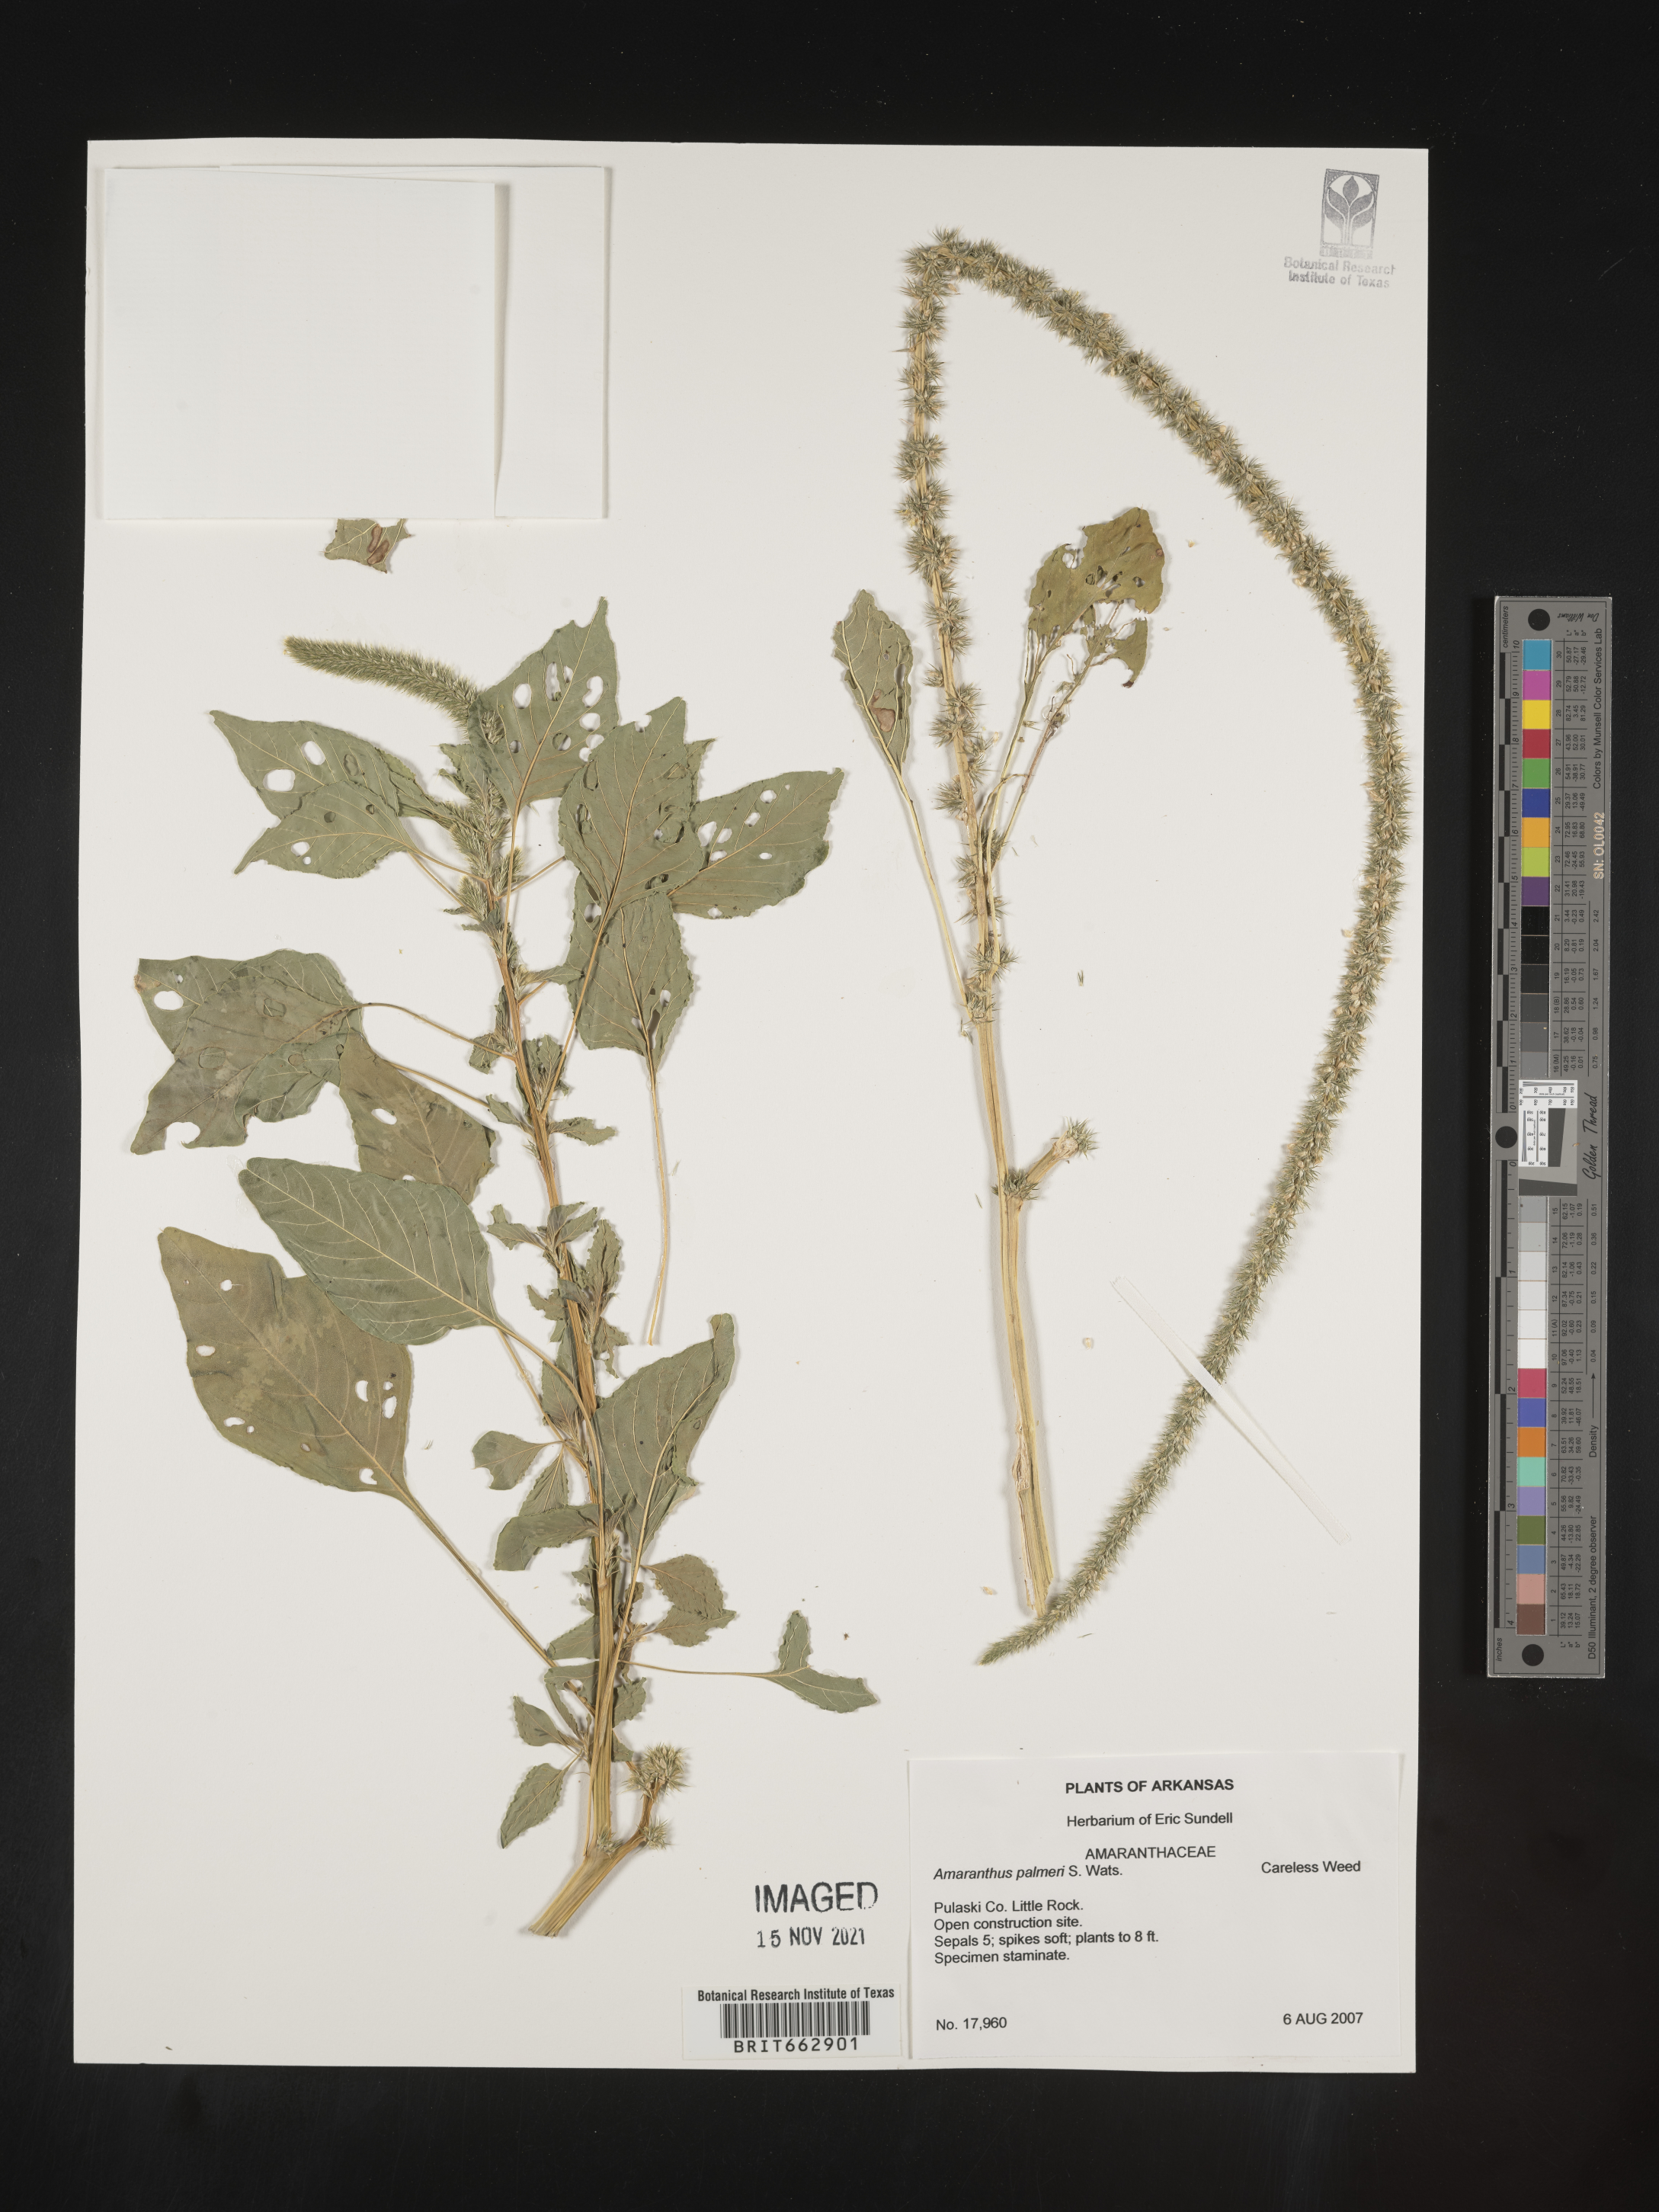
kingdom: Plantae
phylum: Tracheophyta
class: Magnoliopsida
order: Caryophyllales
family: Amaranthaceae
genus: Amaranthus
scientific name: Amaranthus palmeri
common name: Dioecious amaranth
